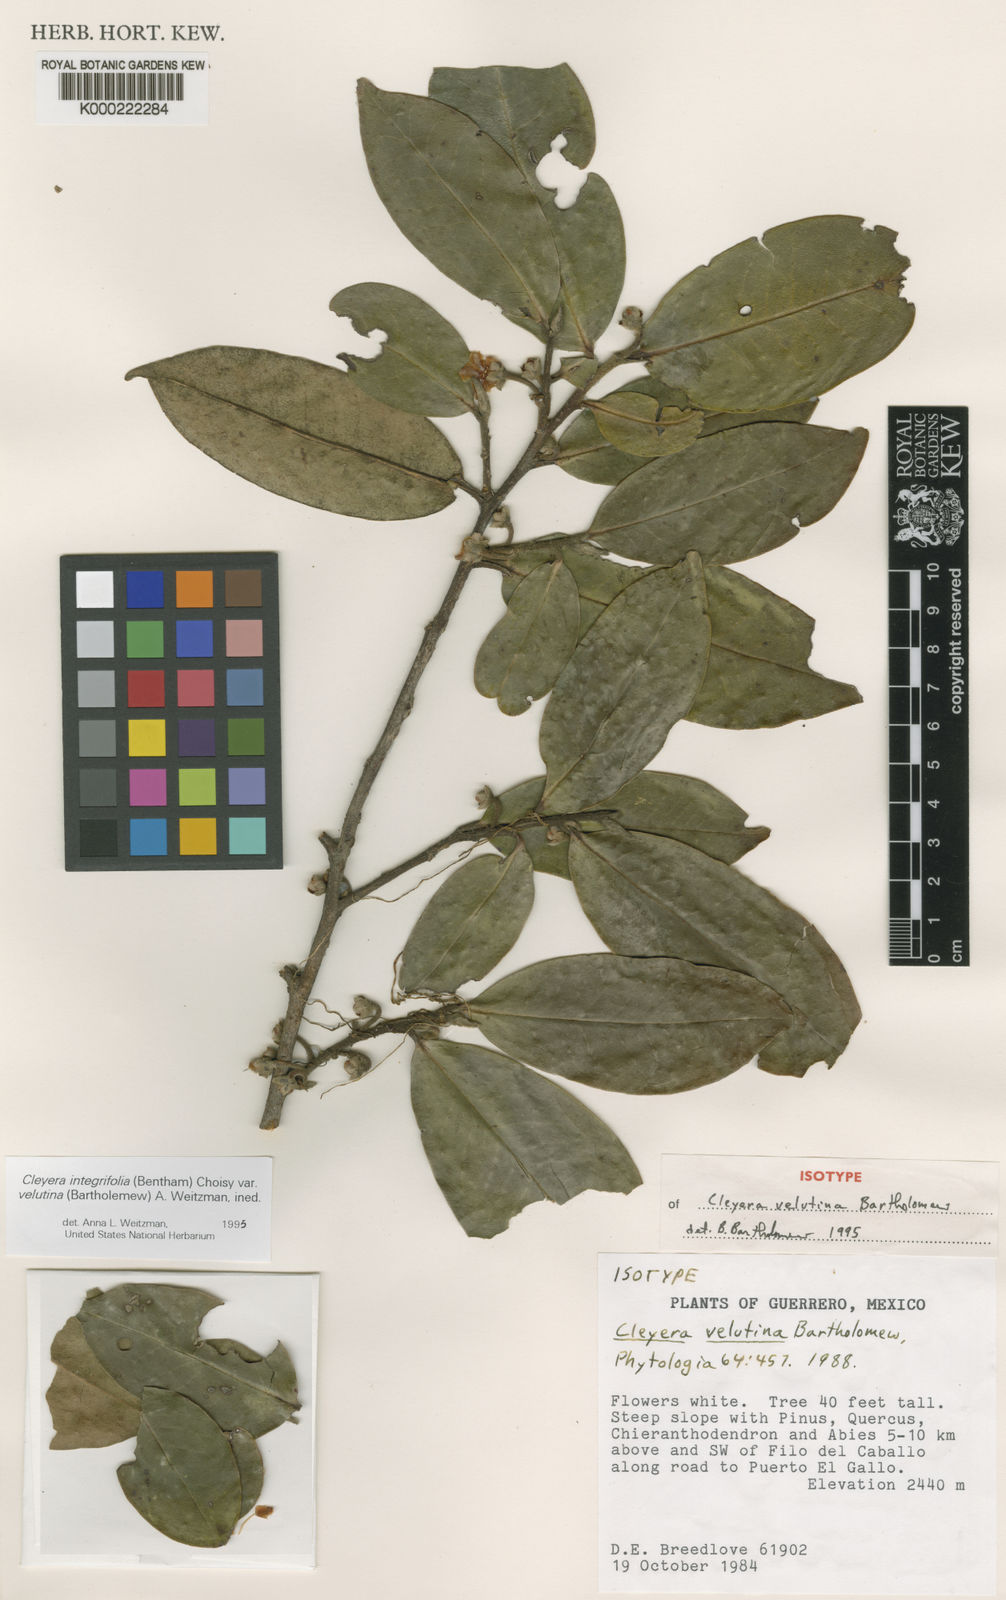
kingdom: Plantae
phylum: Tracheophyta
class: Magnoliopsida
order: Ericales
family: Pentaphylacaceae
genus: Cleyera
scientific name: Cleyera velutina
